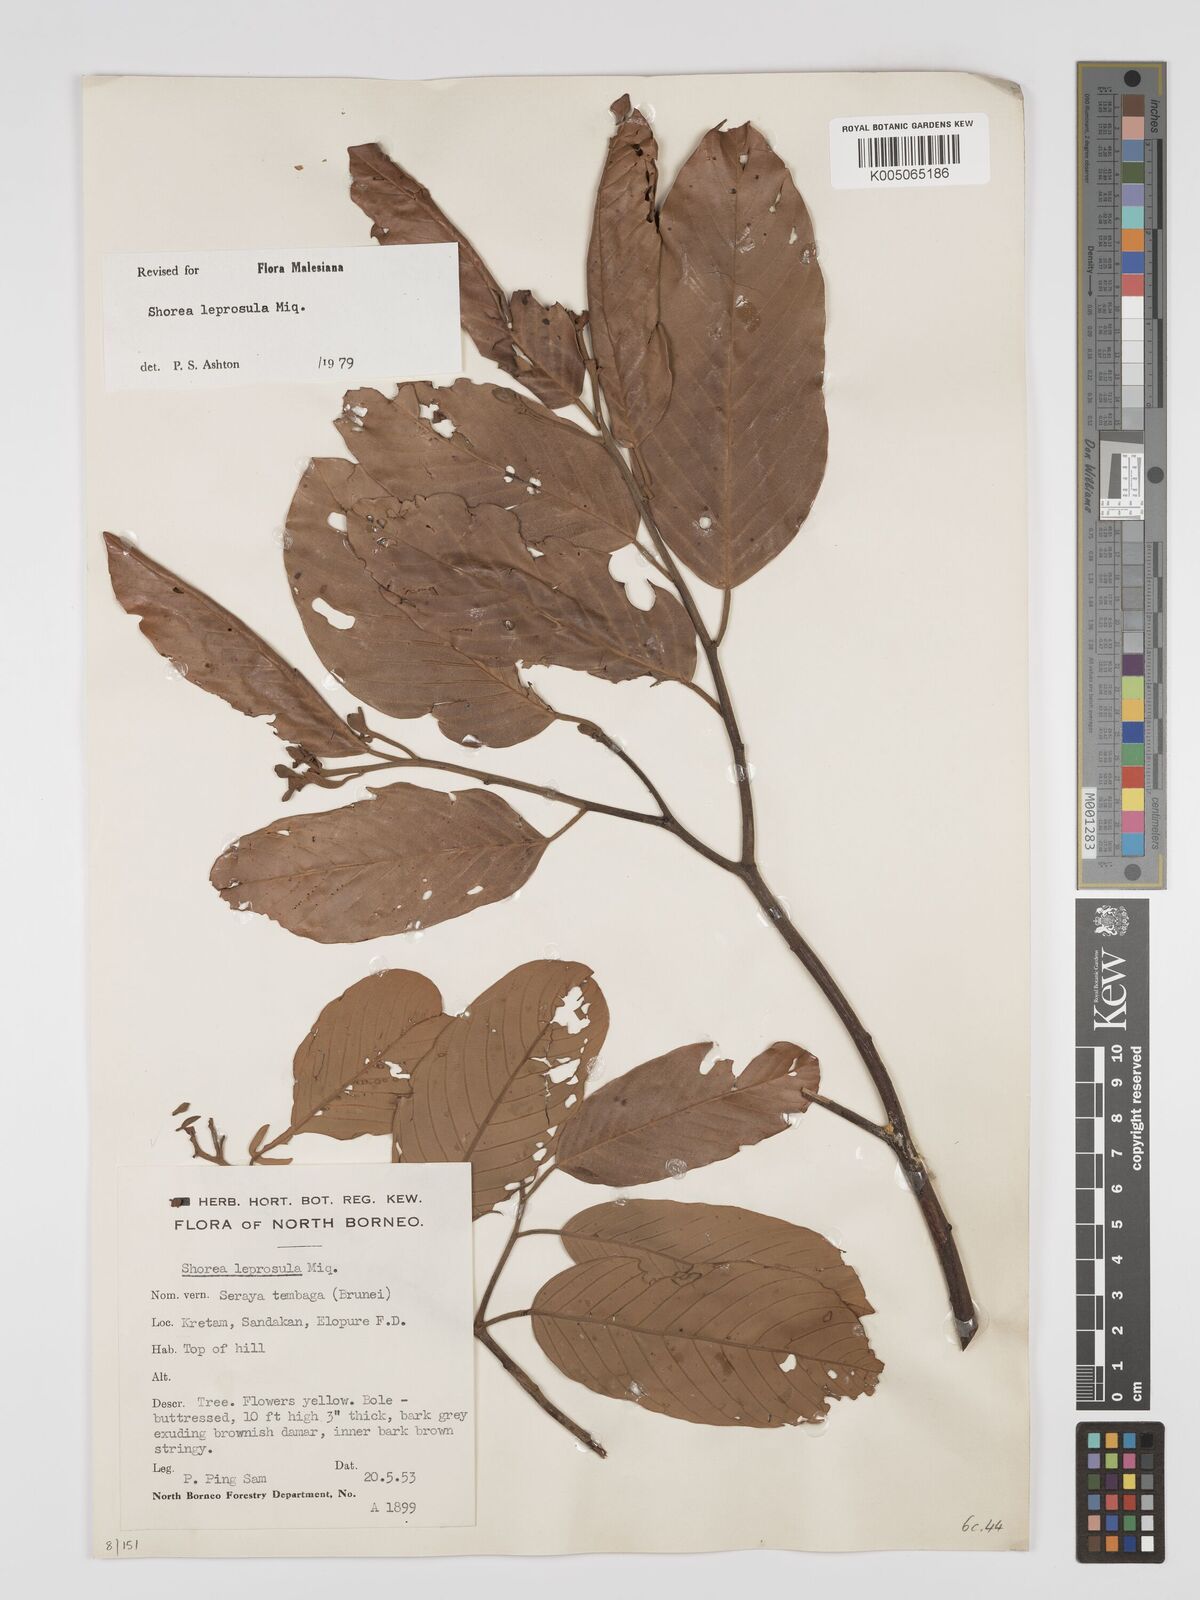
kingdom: Plantae
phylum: Tracheophyta
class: Magnoliopsida
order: Malvales
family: Dipterocarpaceae
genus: Shorea
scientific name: Shorea leprosula
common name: Light red meranti
